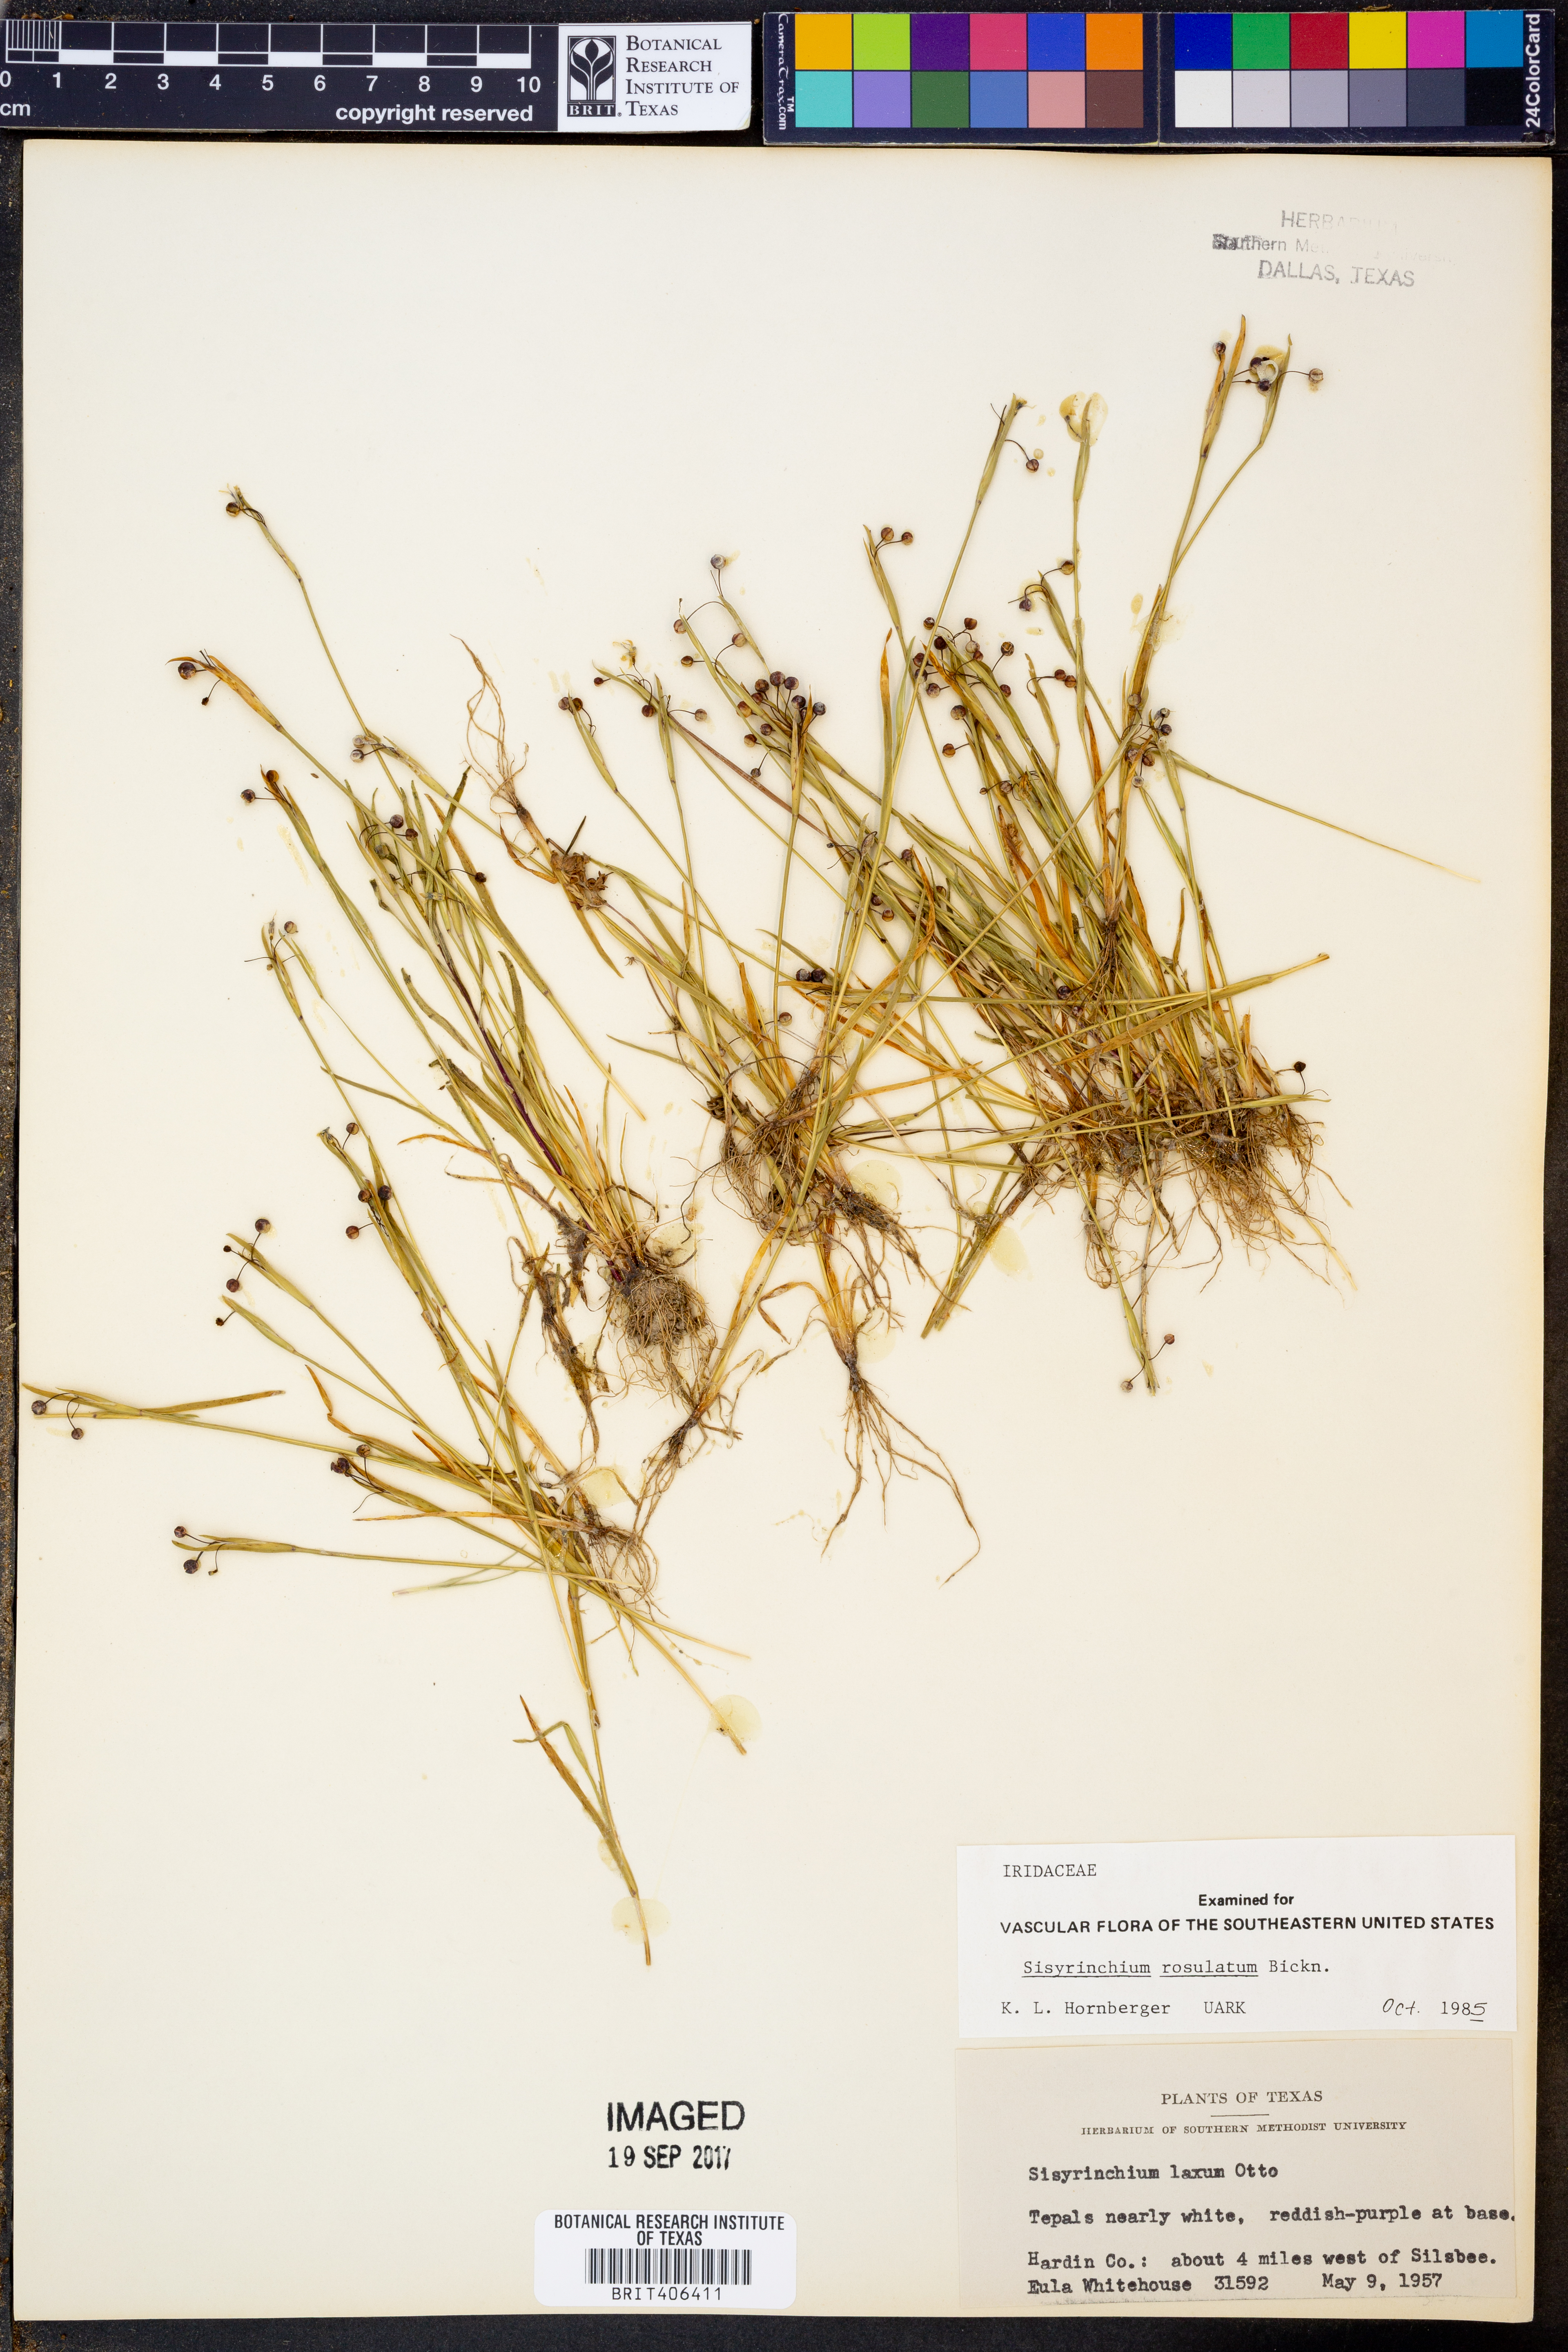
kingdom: Plantae
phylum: Tracheophyta
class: Liliopsida
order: Asparagales
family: Iridaceae
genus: Sisyrinchium
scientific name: Sisyrinchium rosulatum
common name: Annual blue-eyed grass
